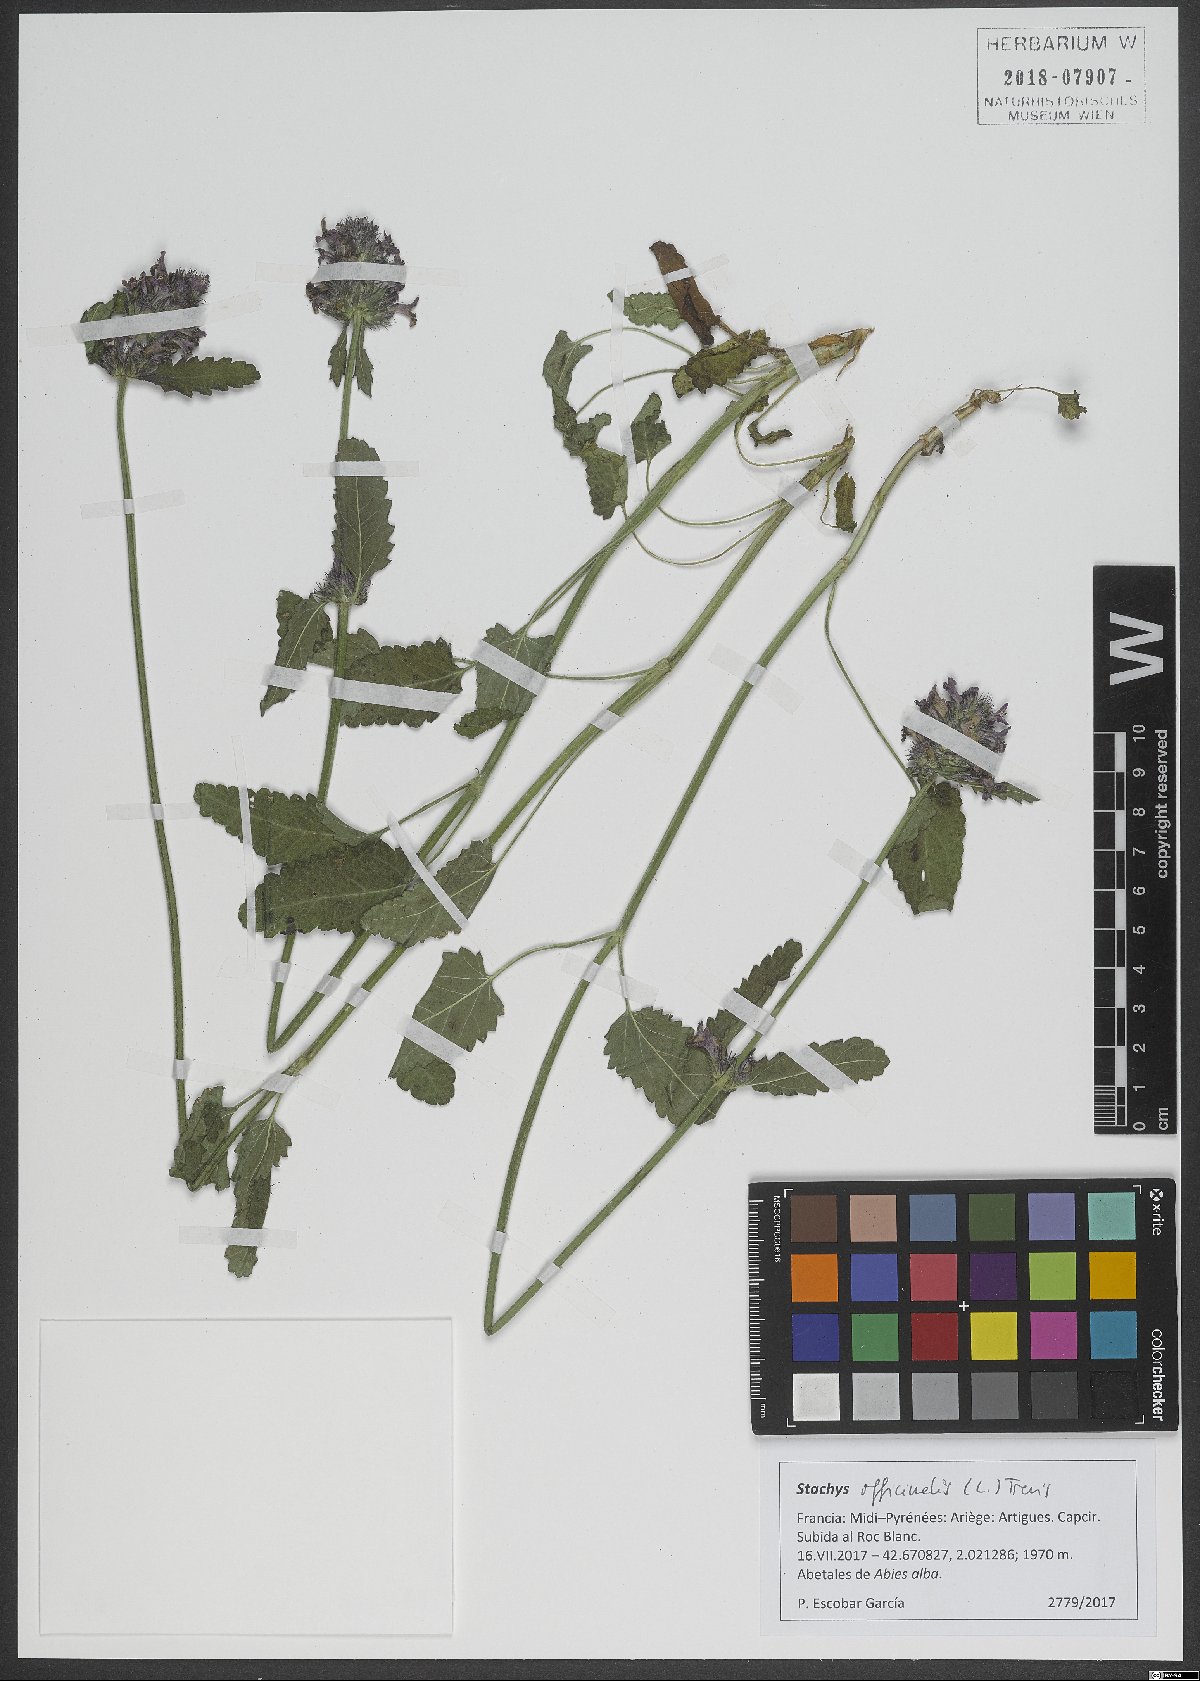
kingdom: Plantae
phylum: Tracheophyta
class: Magnoliopsida
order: Lamiales
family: Lamiaceae
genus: Betonica
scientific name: Betonica officinalis
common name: Bishop's-wort
